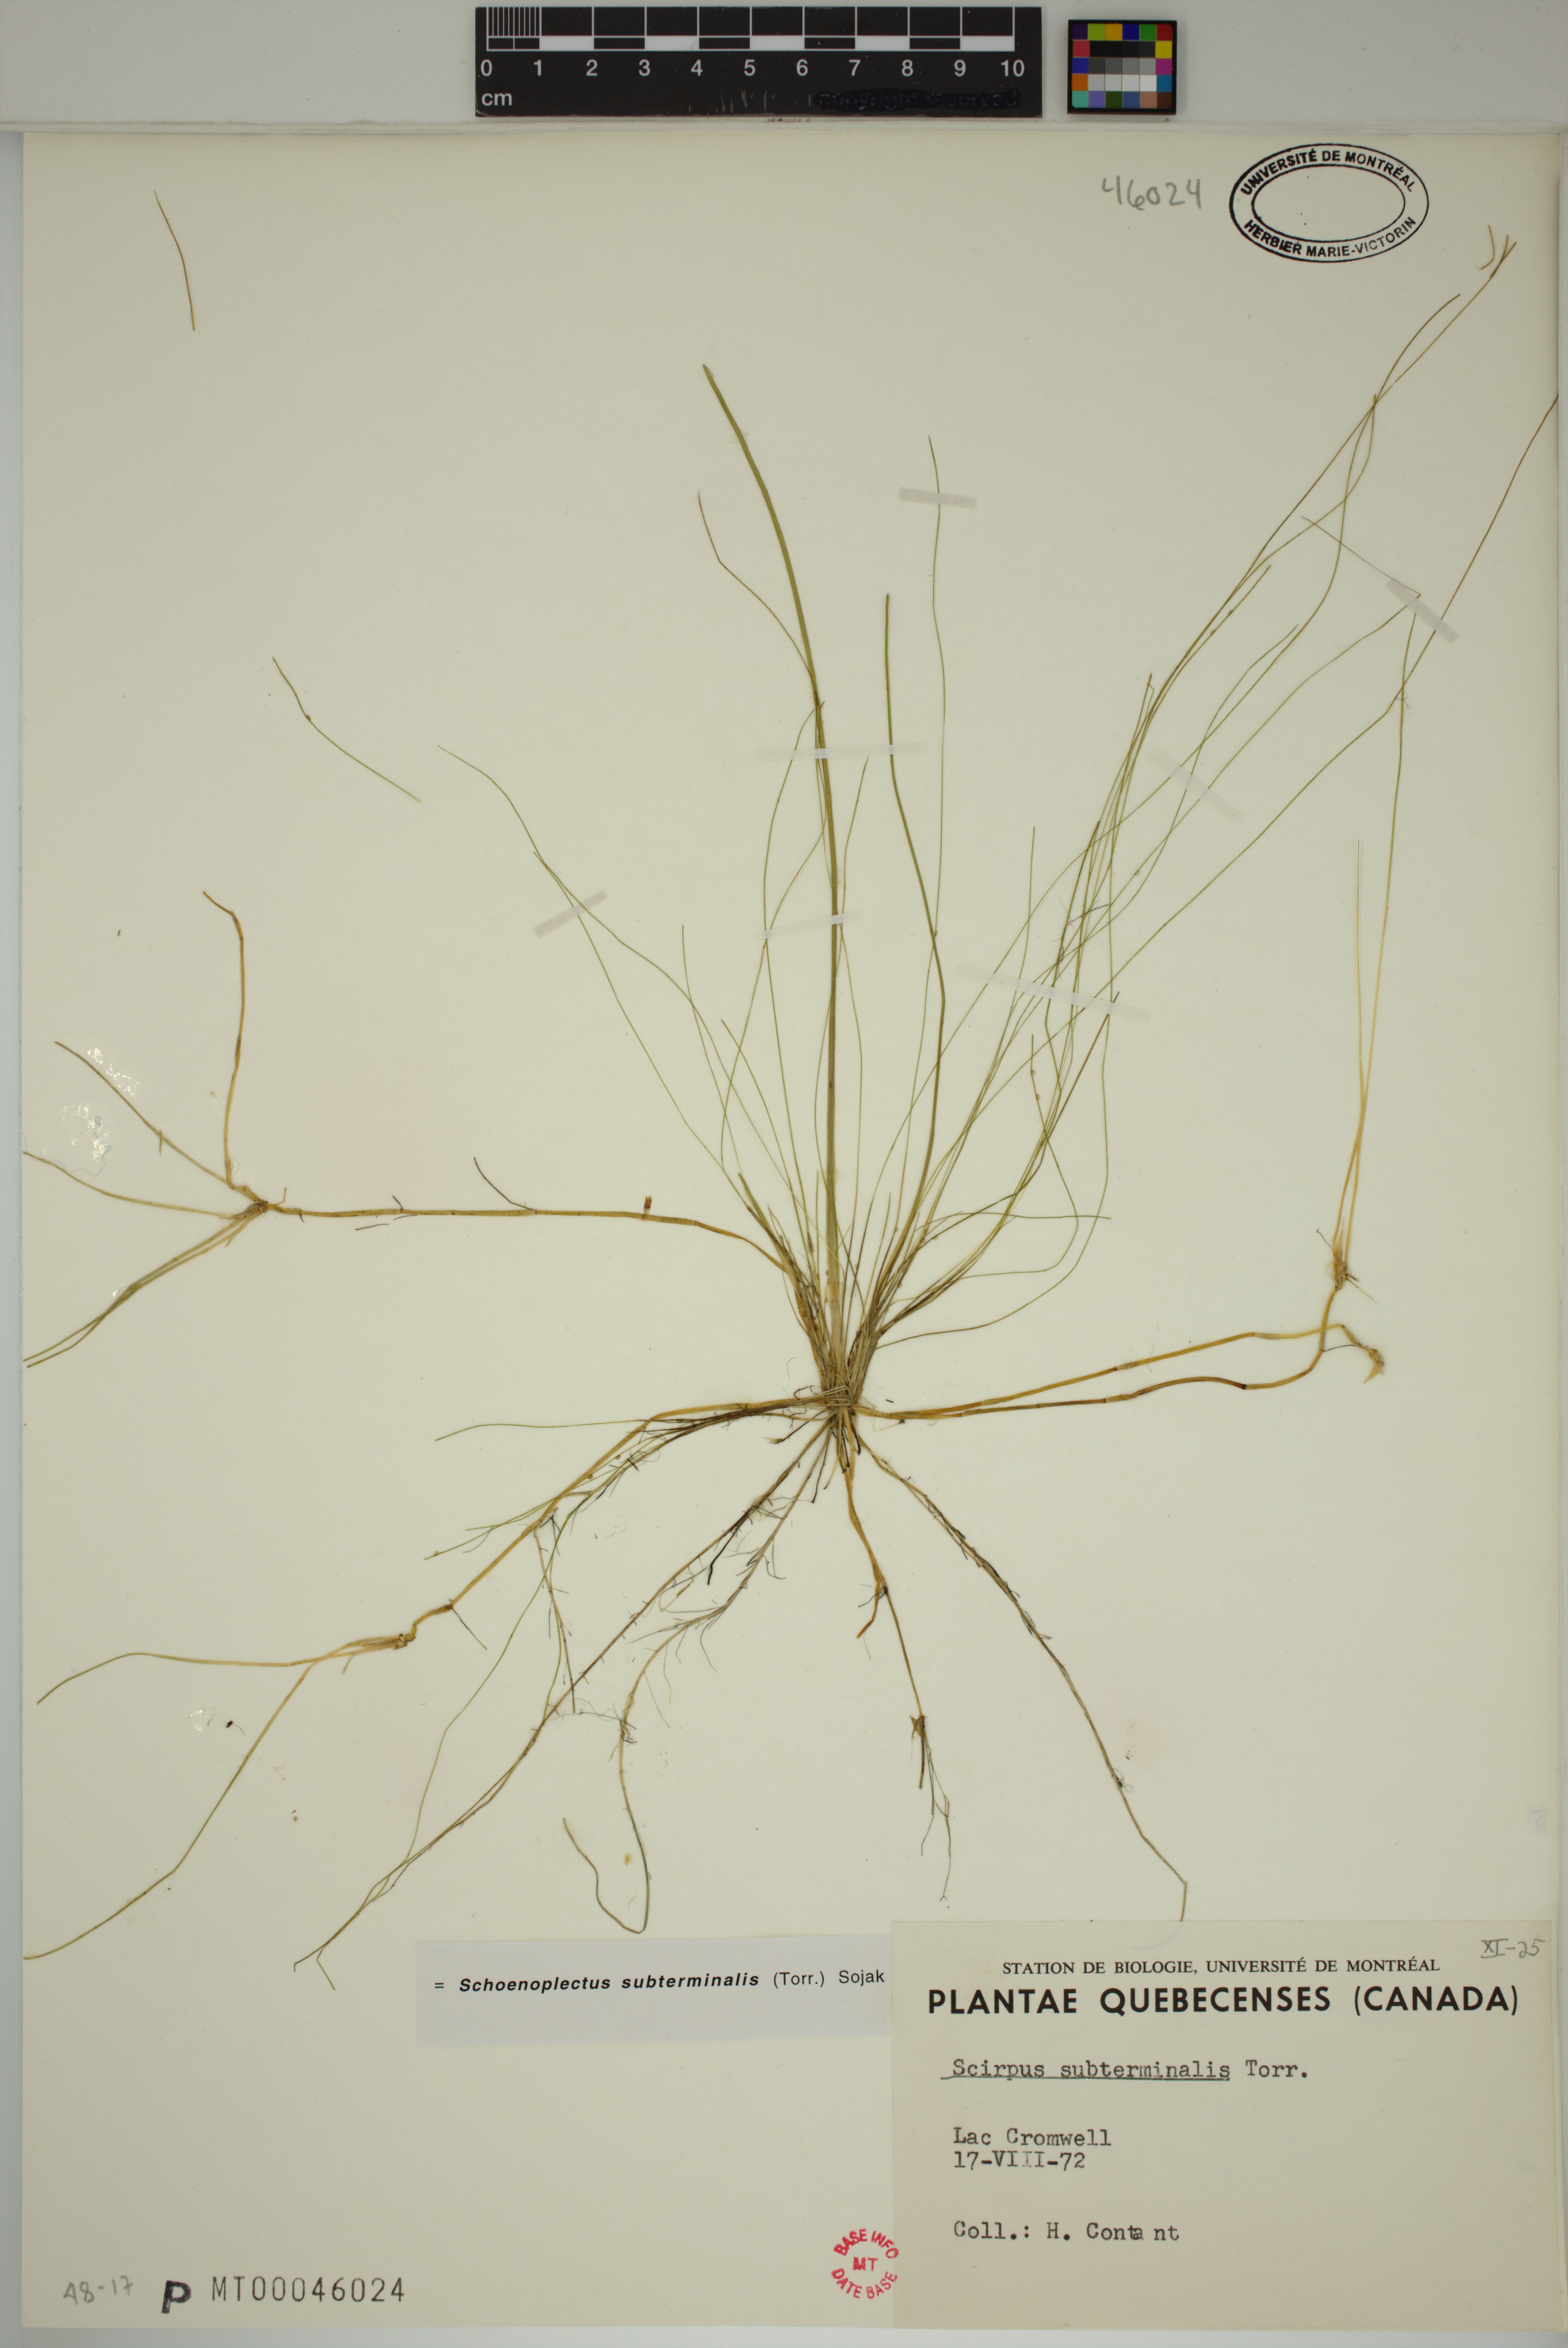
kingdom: Plantae
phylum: Tracheophyta
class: Liliopsida
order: Poales
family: Cyperaceae
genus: Schoenoplectus
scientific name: Schoenoplectus subterminalis
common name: Swaying bulrush
